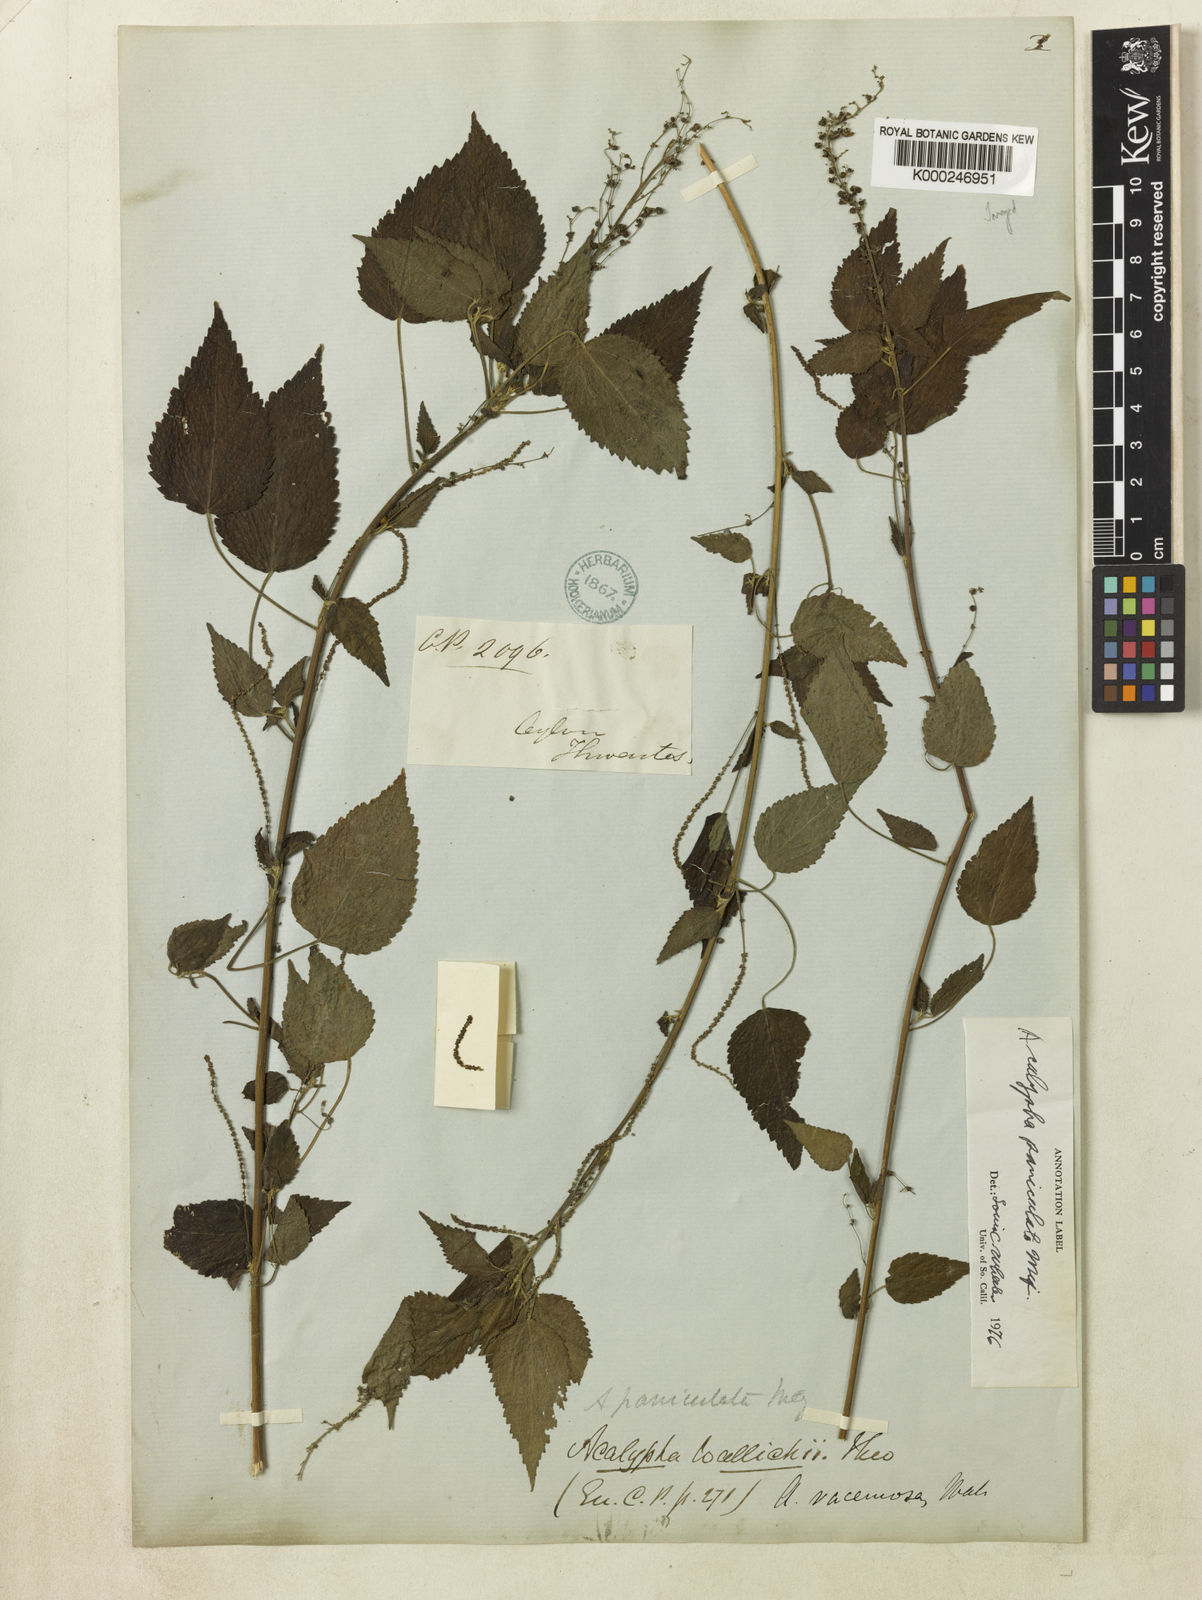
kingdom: Plantae
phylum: Tracheophyta
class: Magnoliopsida
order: Malpighiales
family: Euphorbiaceae
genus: Acalypha
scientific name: Acalypha paniculata
